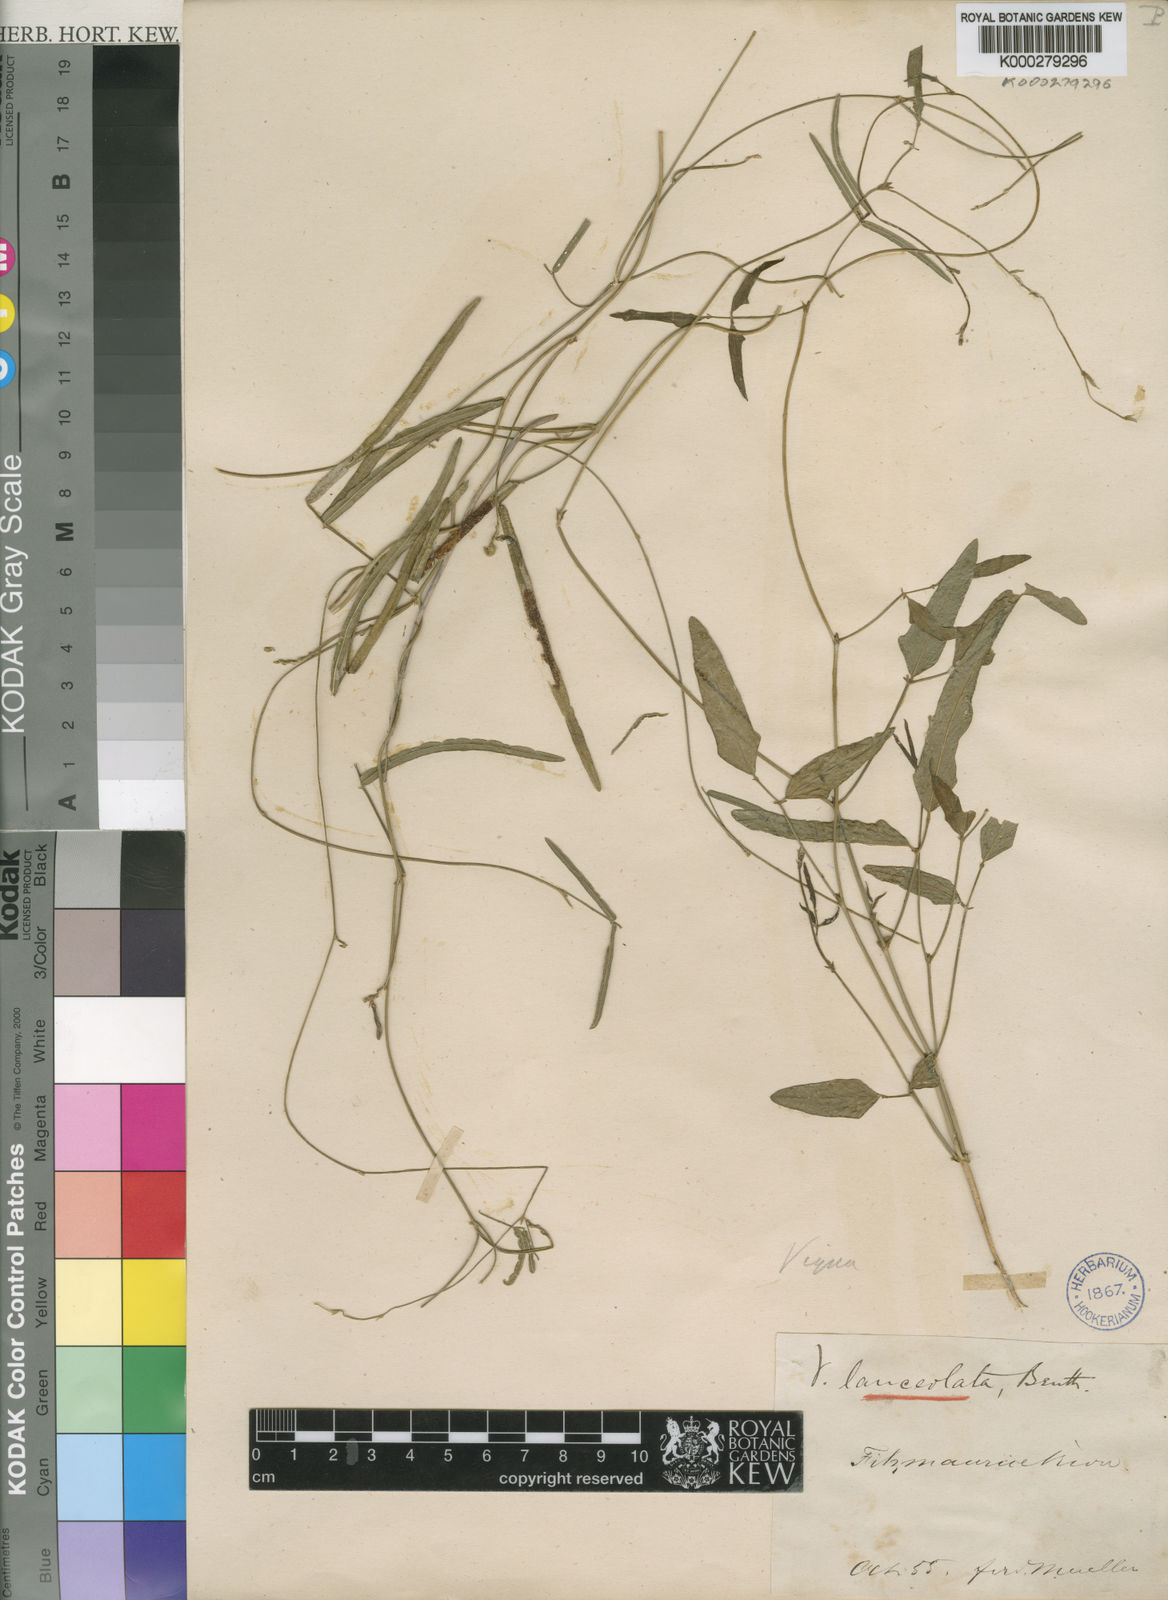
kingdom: Plantae
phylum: Tracheophyta
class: Magnoliopsida
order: Fabales
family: Fabaceae
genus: Vigna
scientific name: Vigna lanceolata
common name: Maloga-bean
